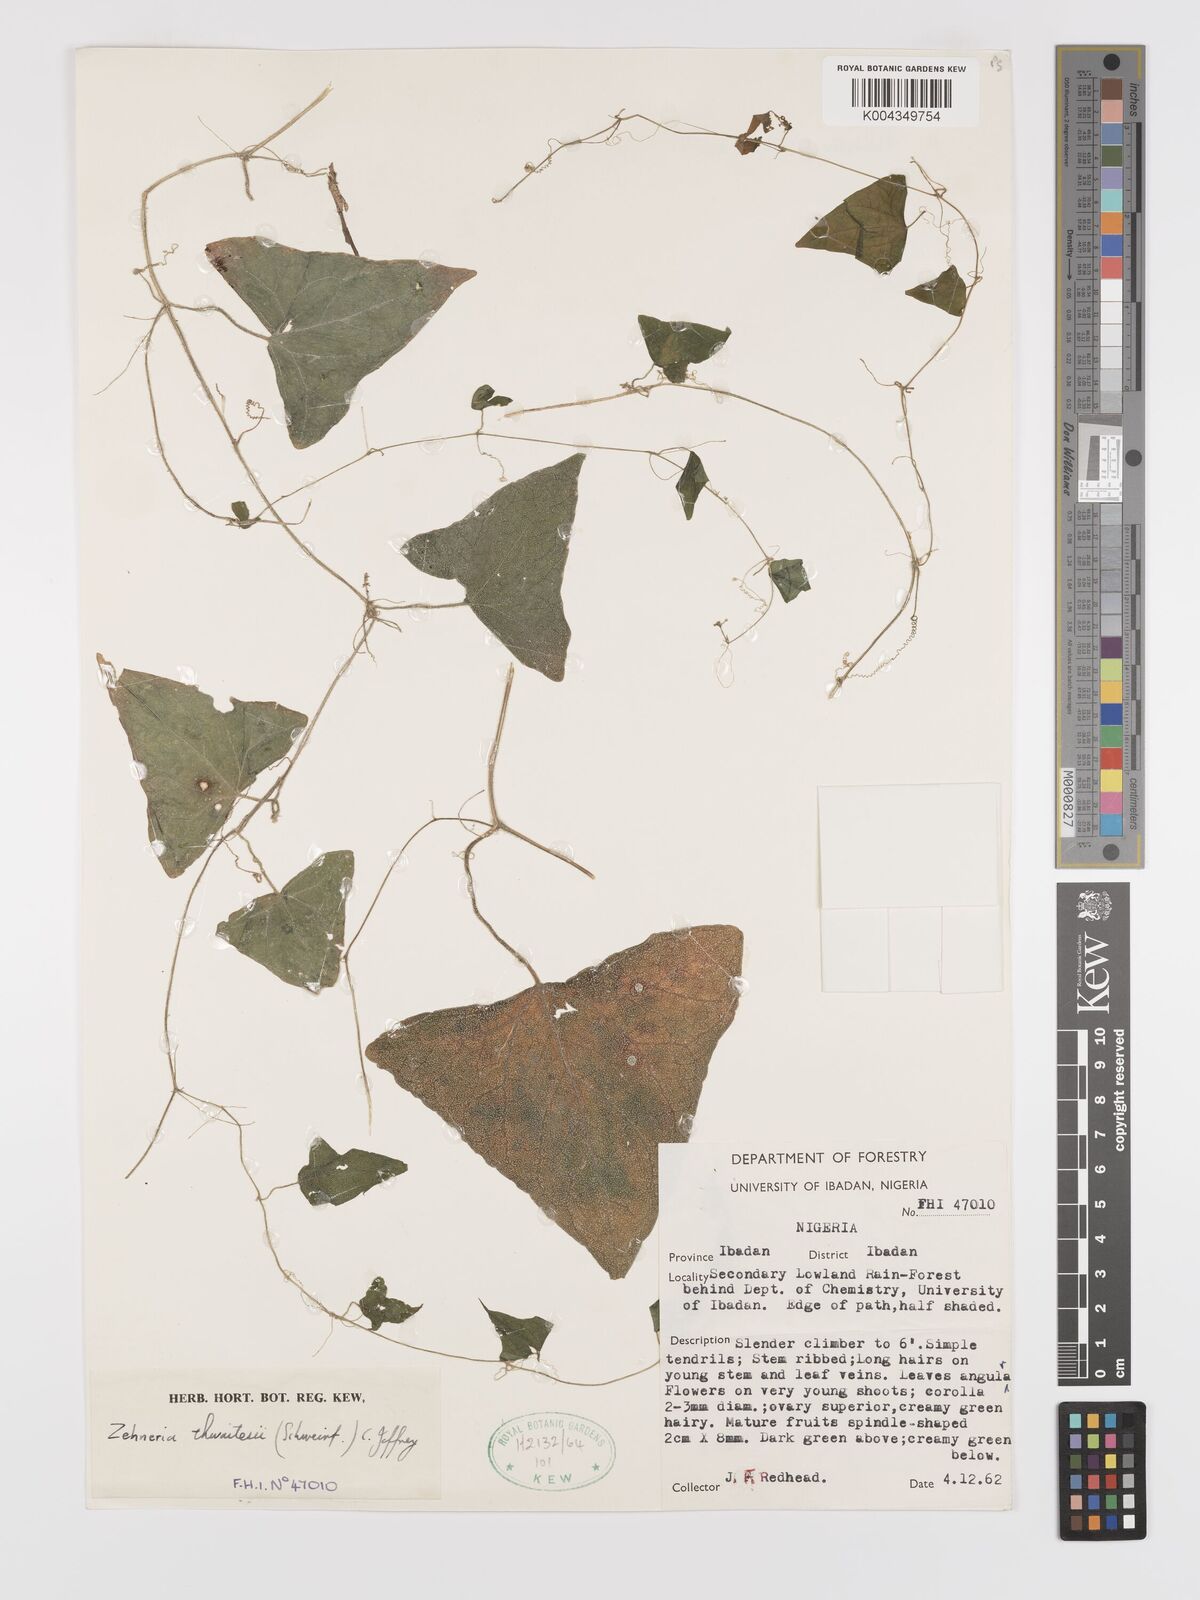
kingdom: Plantae
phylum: Tracheophyta
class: Magnoliopsida
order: Cucurbitales
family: Cucurbitaceae
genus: Zehneria
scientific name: Zehneria thwaitesii
